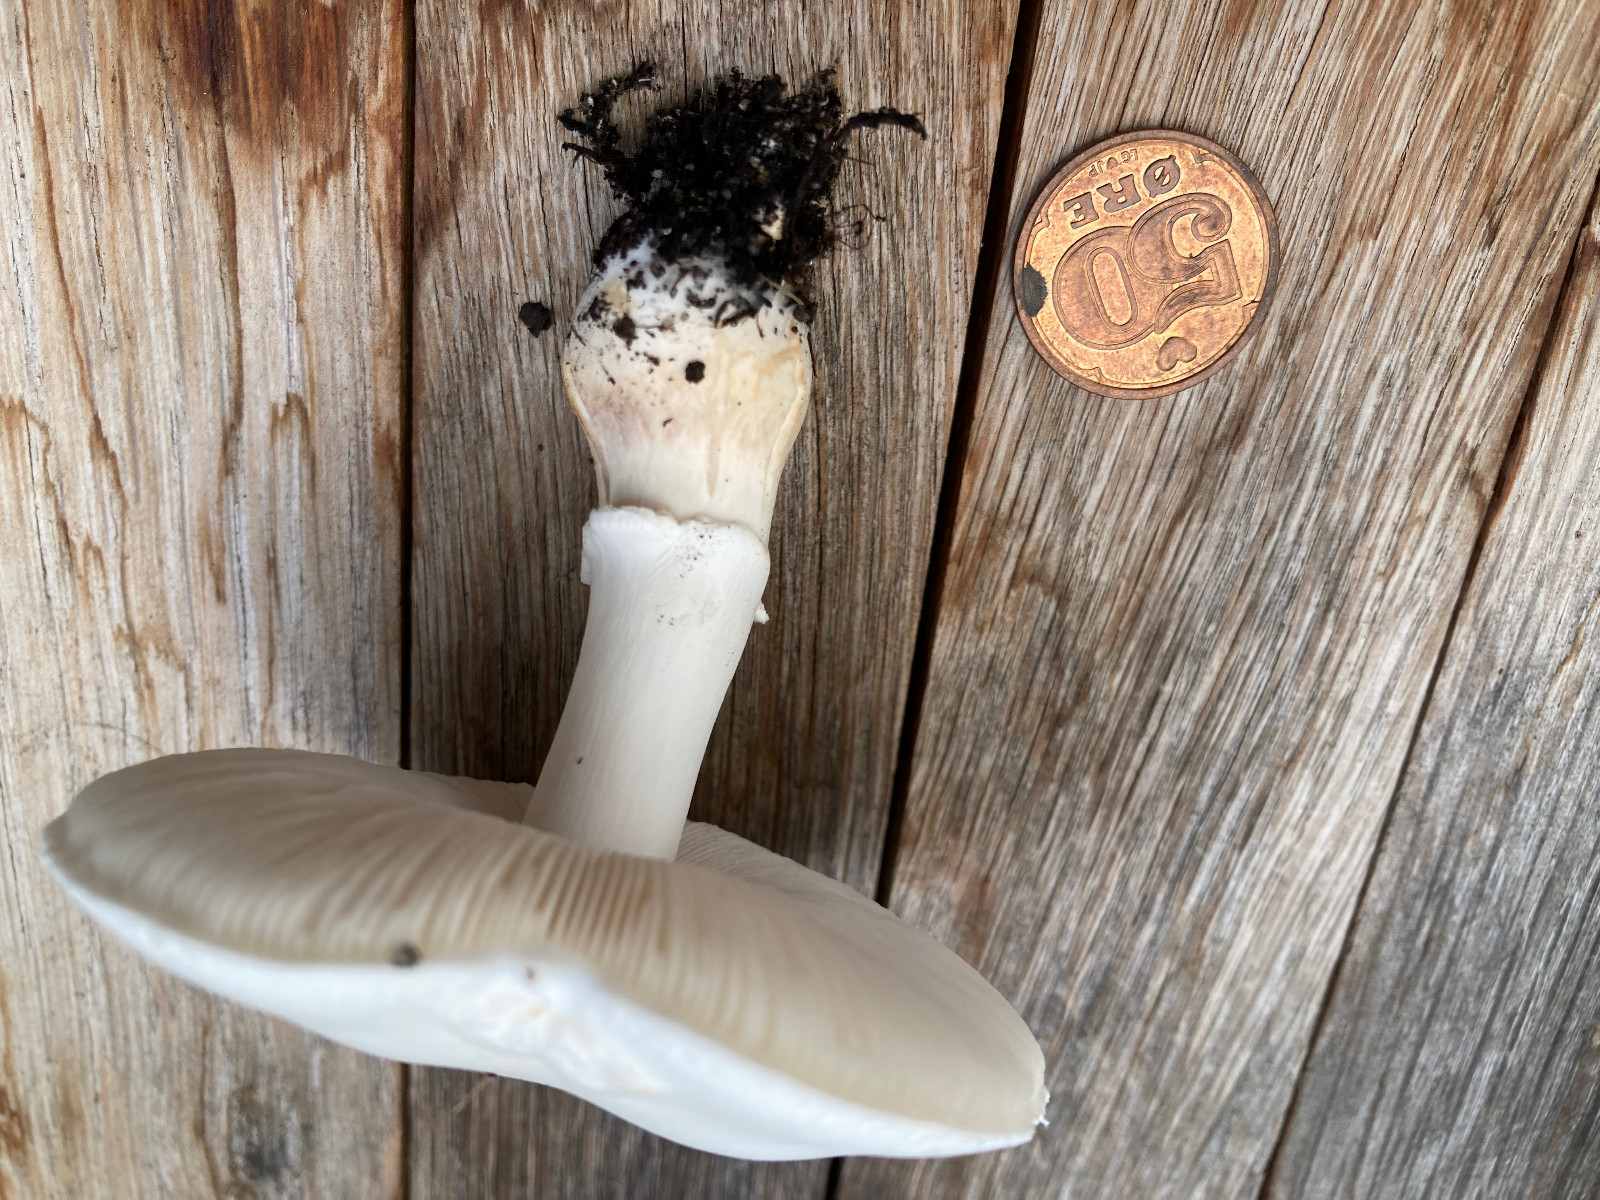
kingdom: Fungi
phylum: Basidiomycota
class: Agaricomycetes
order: Agaricales
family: Agaricaceae
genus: Leucoagaricus
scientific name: Leucoagaricus leucothites
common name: rosabladet silkehat
